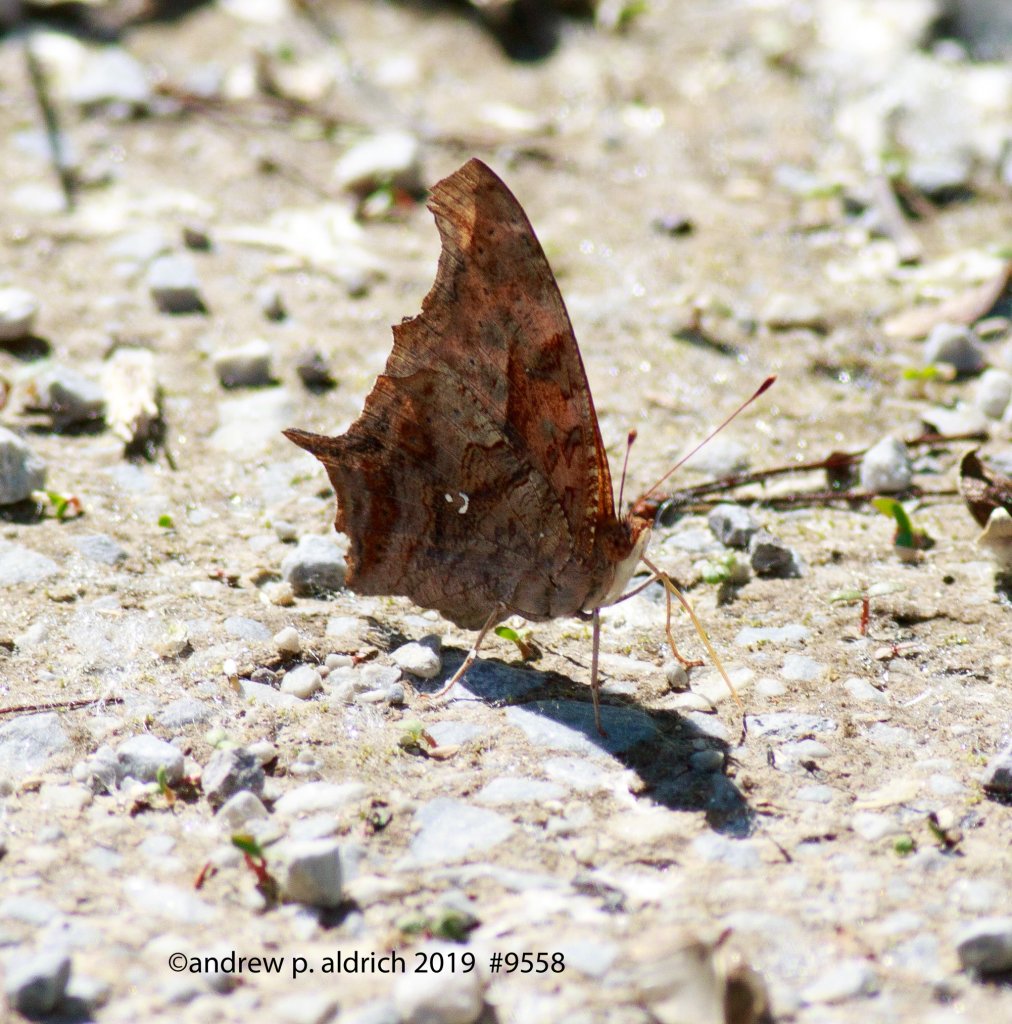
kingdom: Animalia
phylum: Arthropoda
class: Insecta
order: Lepidoptera
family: Nymphalidae
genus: Polygonia
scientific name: Polygonia interrogationis
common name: Question Mark
